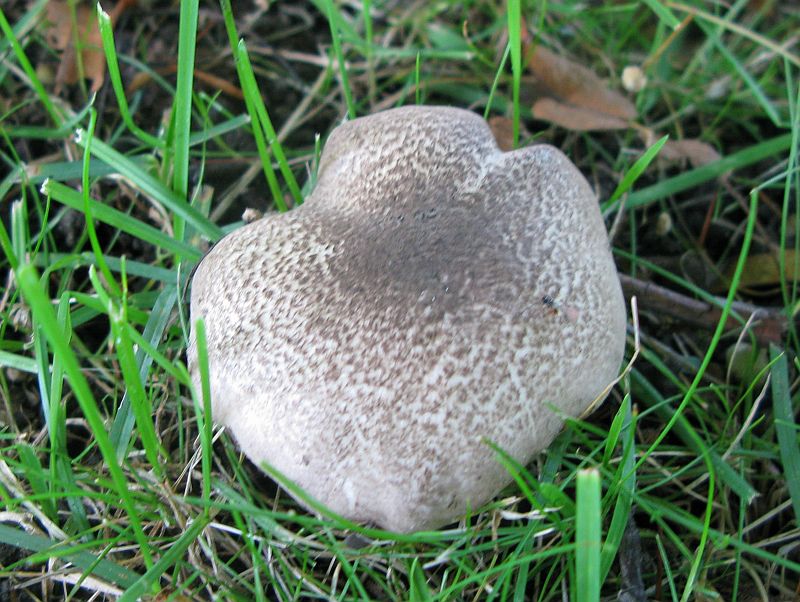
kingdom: Fungi
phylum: Basidiomycota
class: Agaricomycetes
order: Agaricales
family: Tricholomataceae
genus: Tricholoma
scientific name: Tricholoma scalpturatum
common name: gulplettet ridderhat
